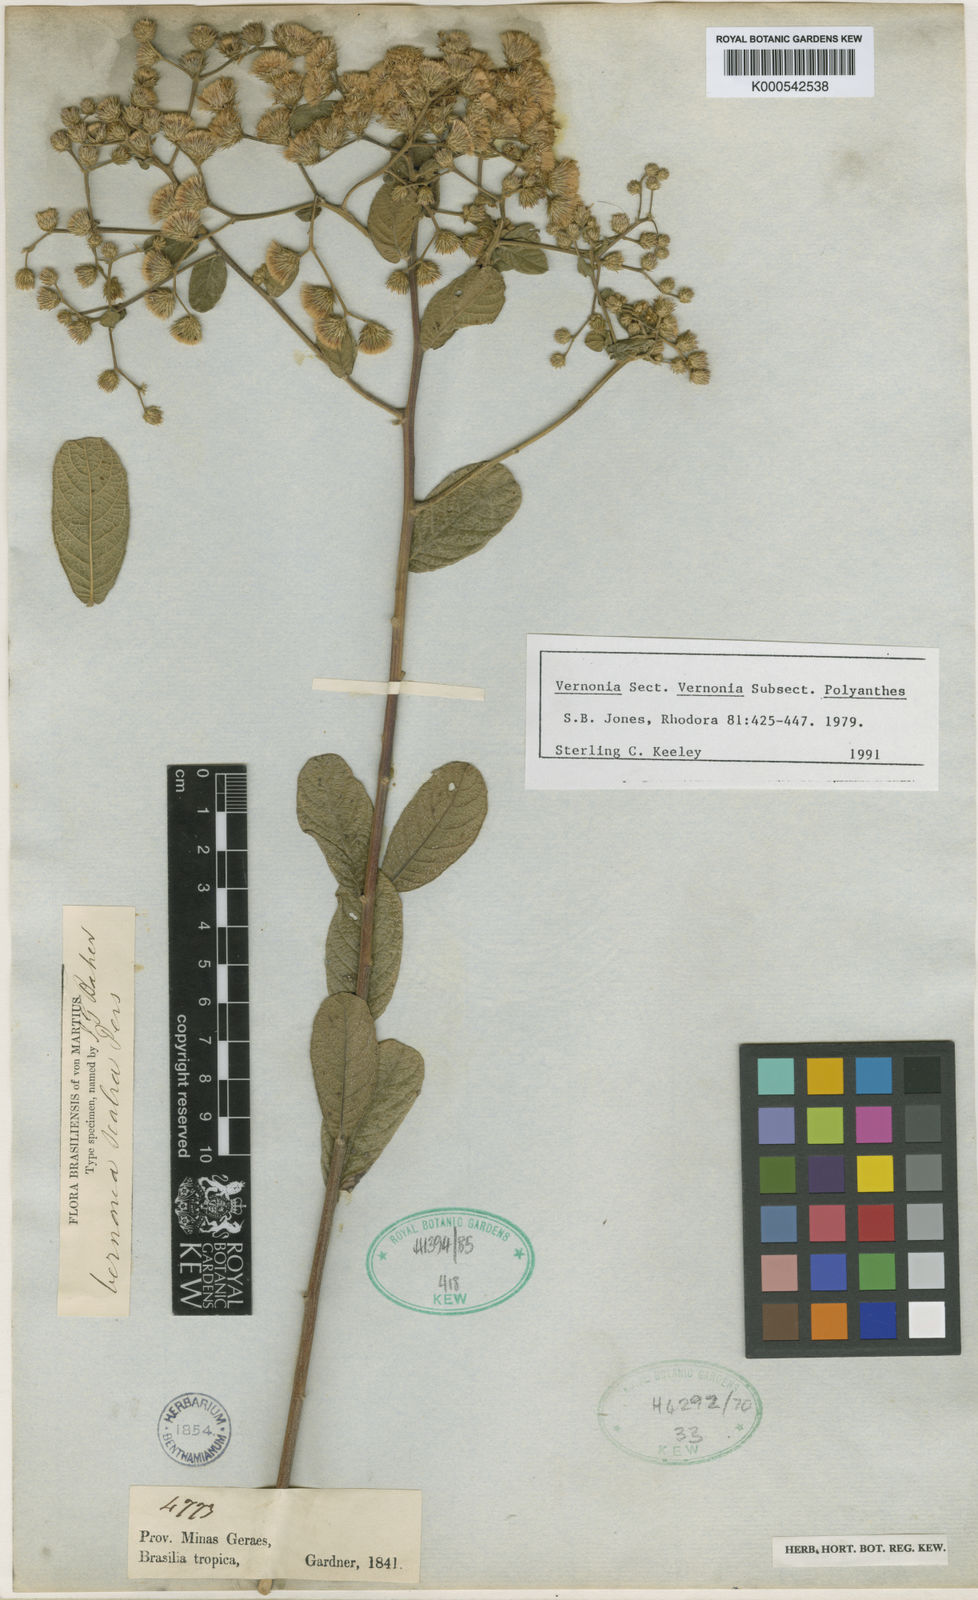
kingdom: Plantae
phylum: Tracheophyta
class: Magnoliopsida
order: Asterales
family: Asteraceae
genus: Vernonanthura
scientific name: Vernonanthura brasiliana
